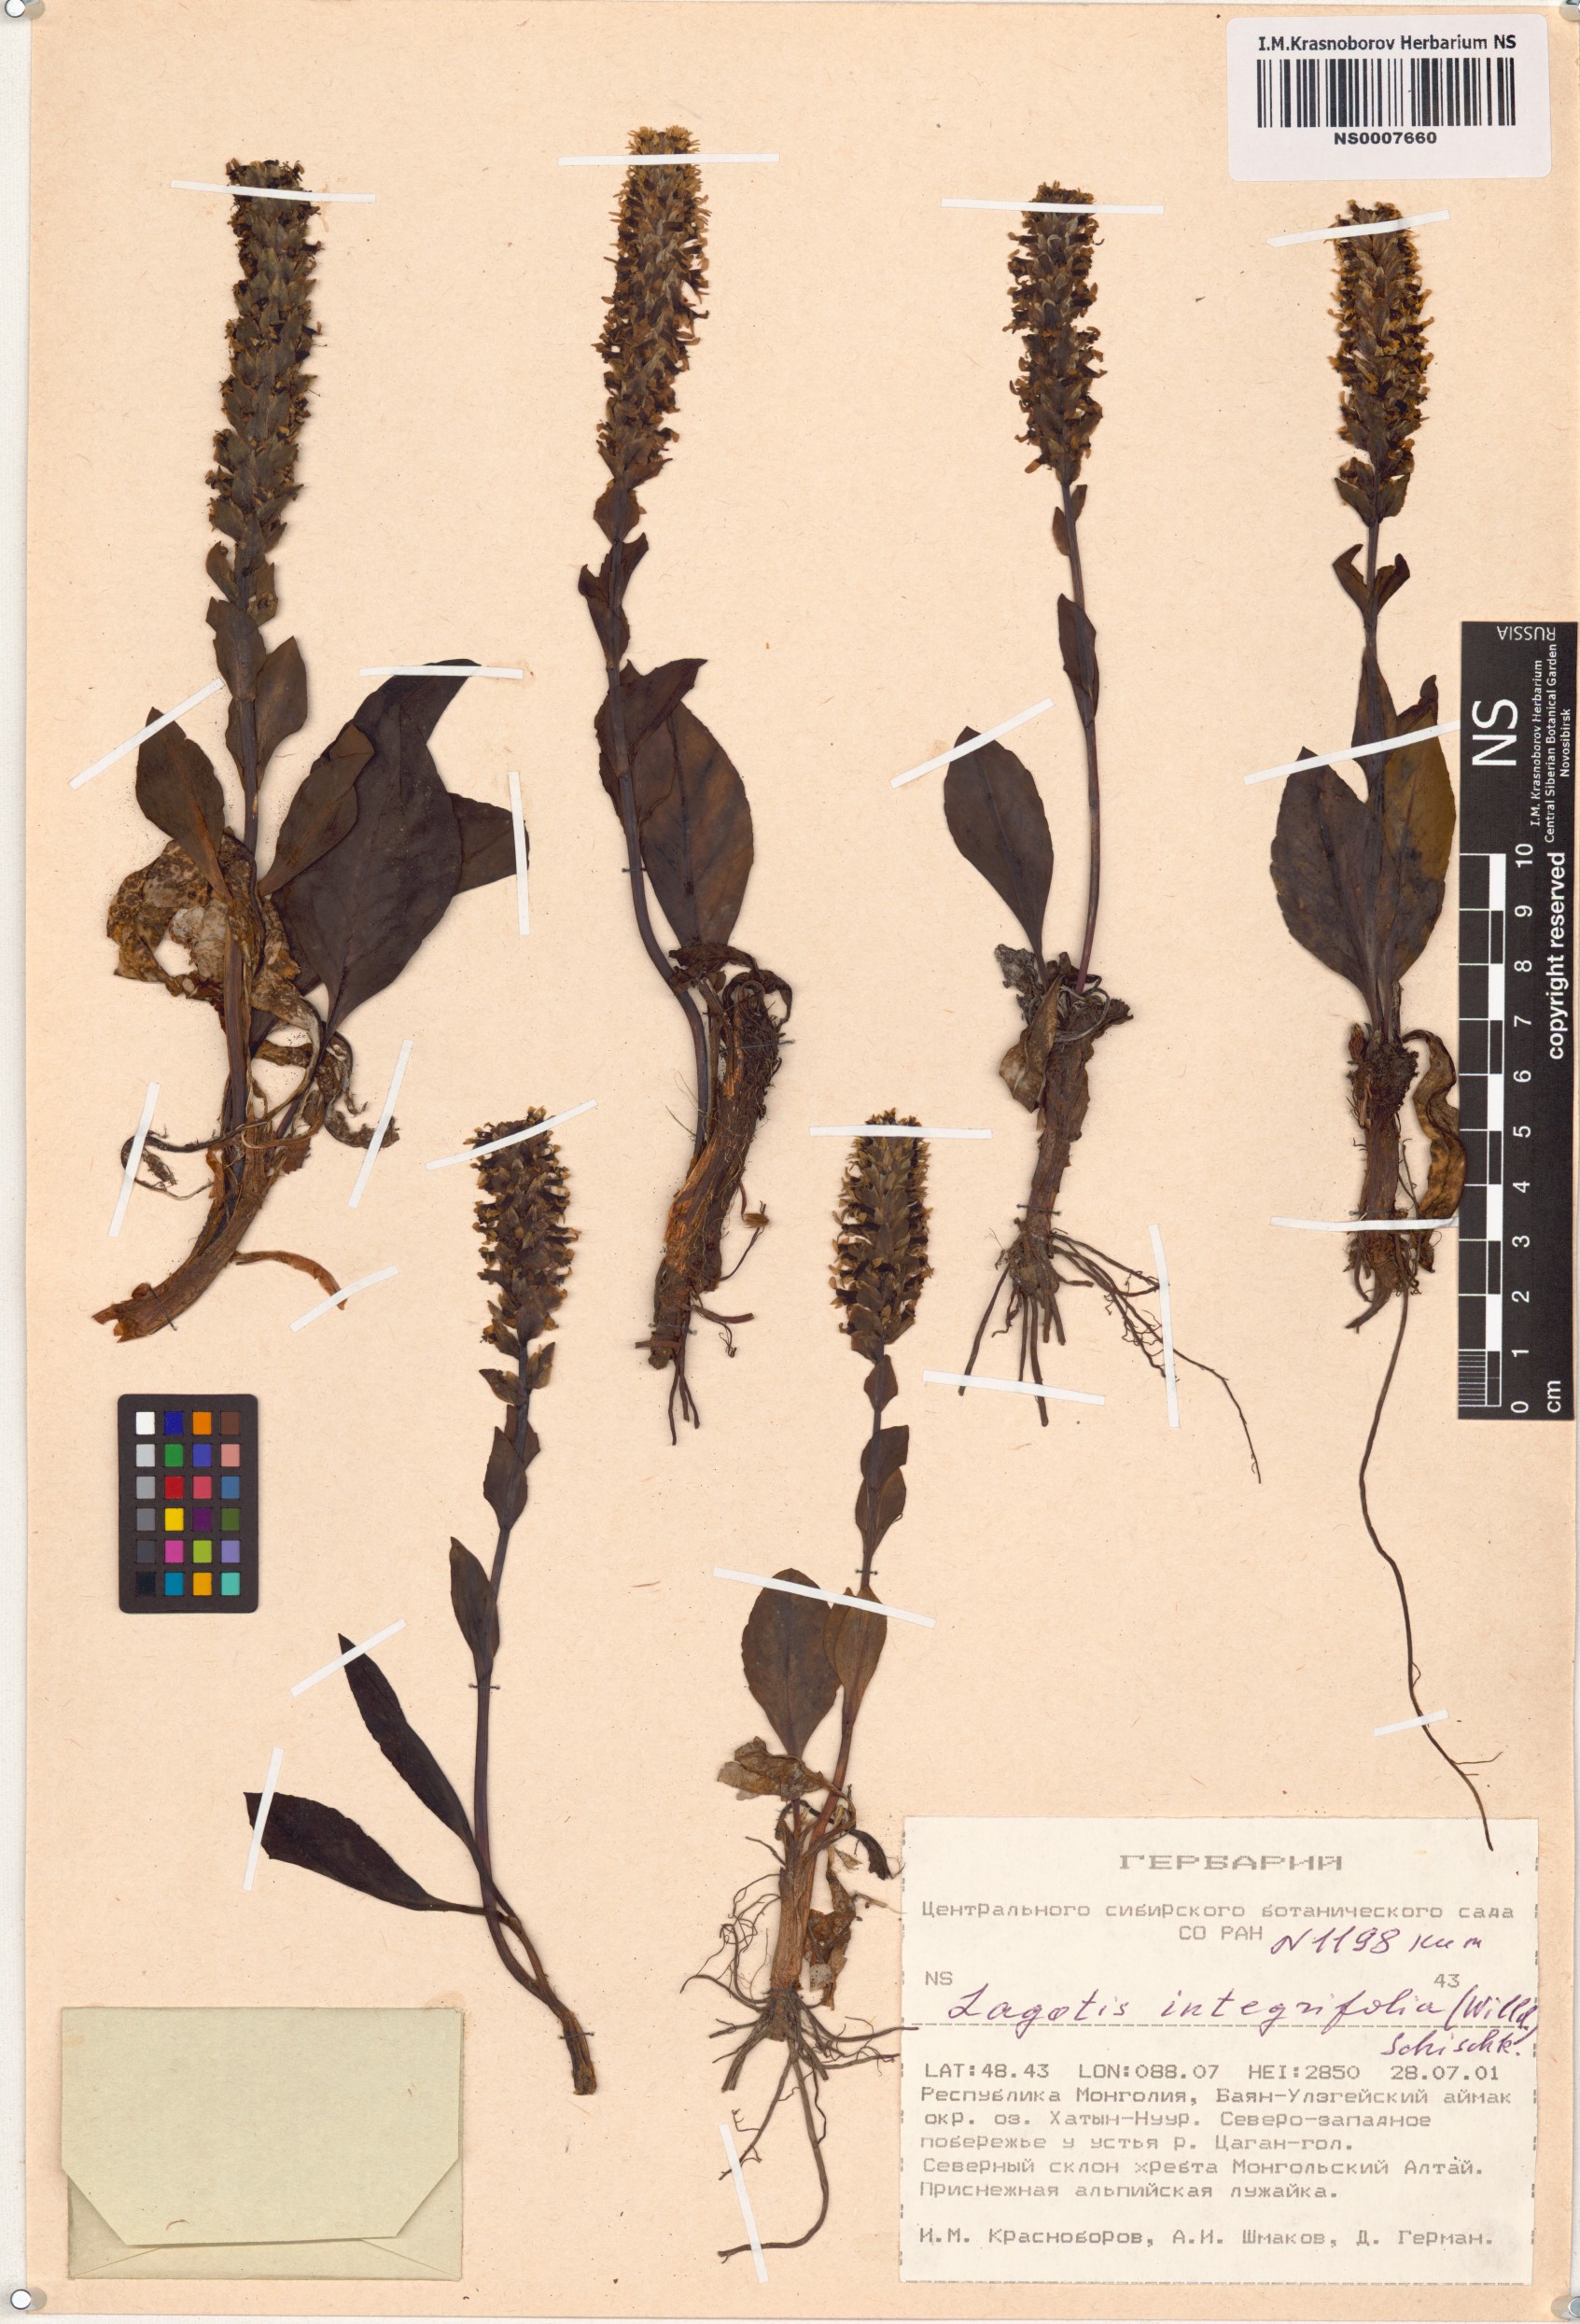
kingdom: Plantae
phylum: Tracheophyta
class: Magnoliopsida
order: Lamiales
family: Plantaginaceae
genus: Lagotis
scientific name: Lagotis integrifolia
